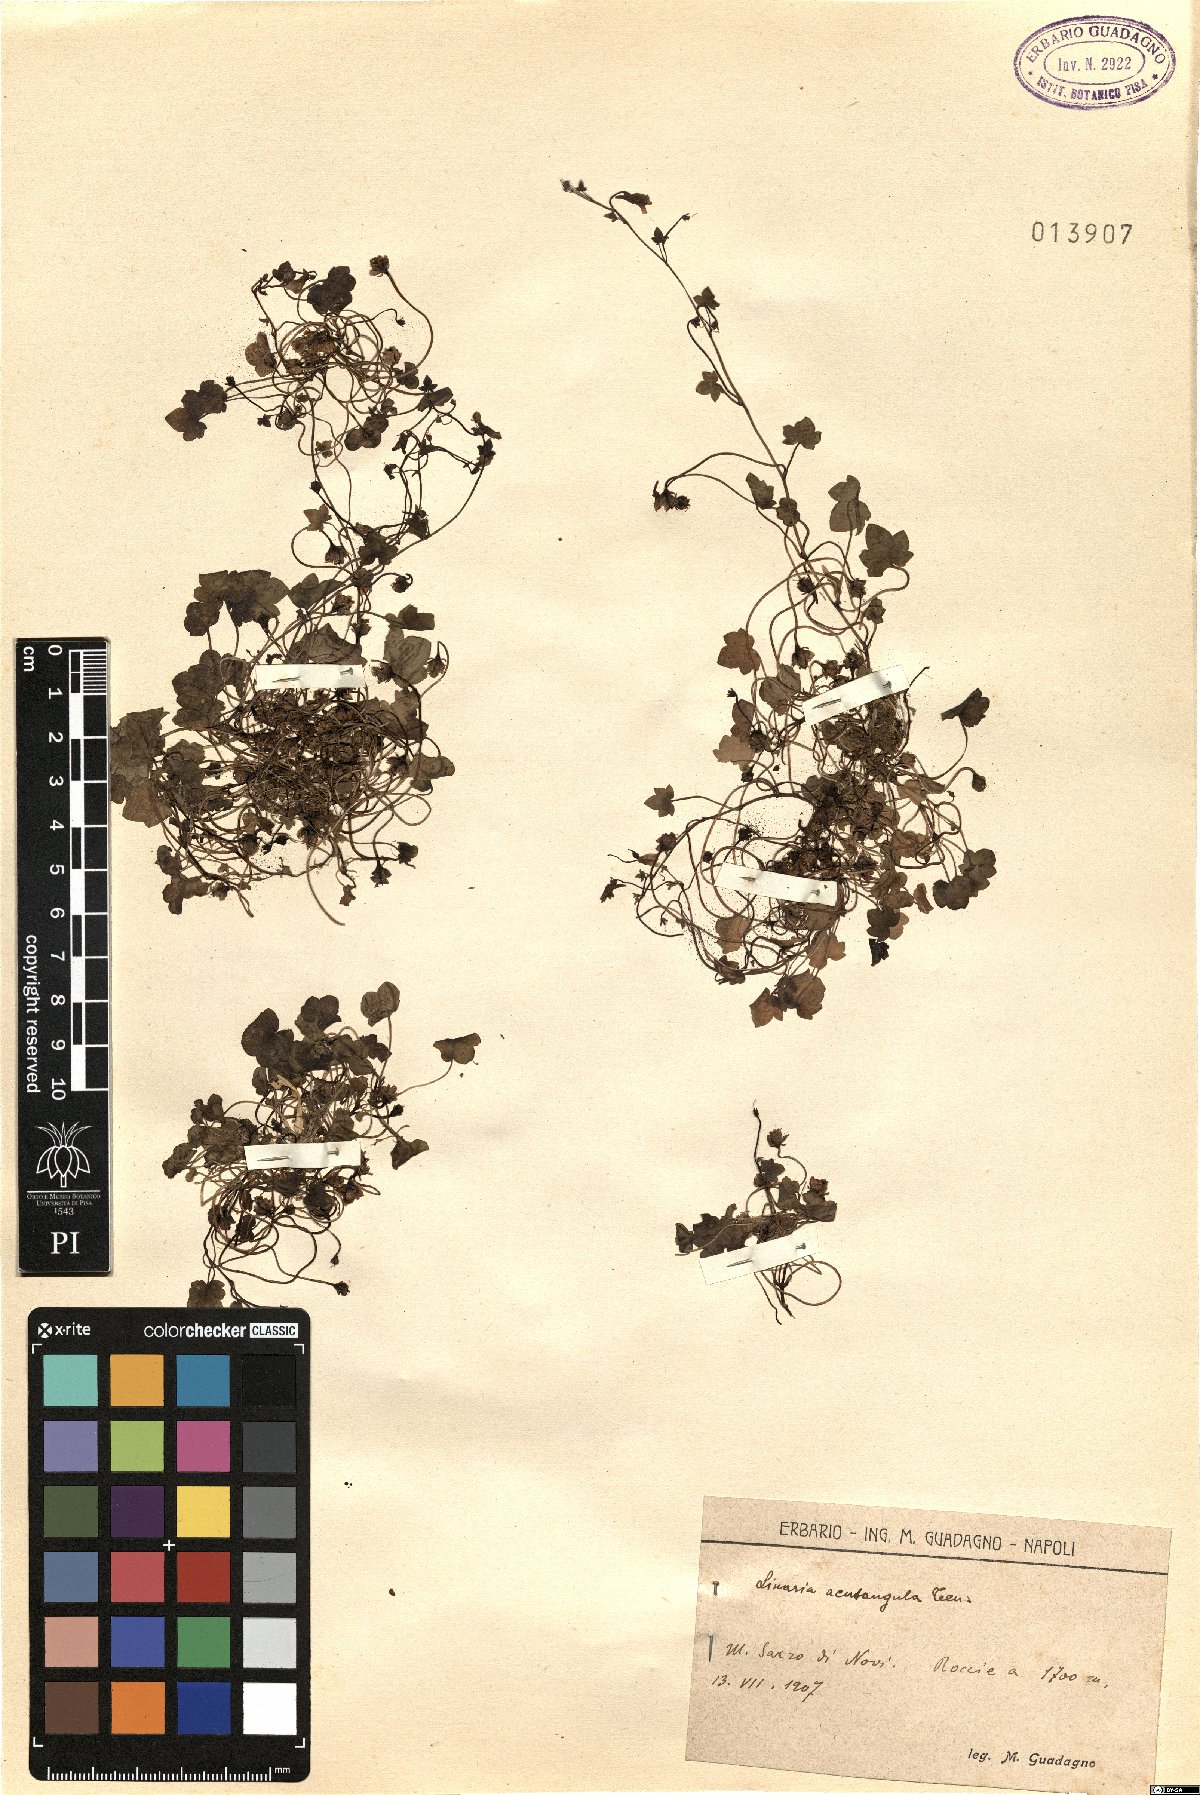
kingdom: Plantae
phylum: Tracheophyta
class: Magnoliopsida
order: Lamiales
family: Plantaginaceae
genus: Cymbalaria
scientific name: Cymbalaria muralis
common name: Ivy-leaved toadflax
